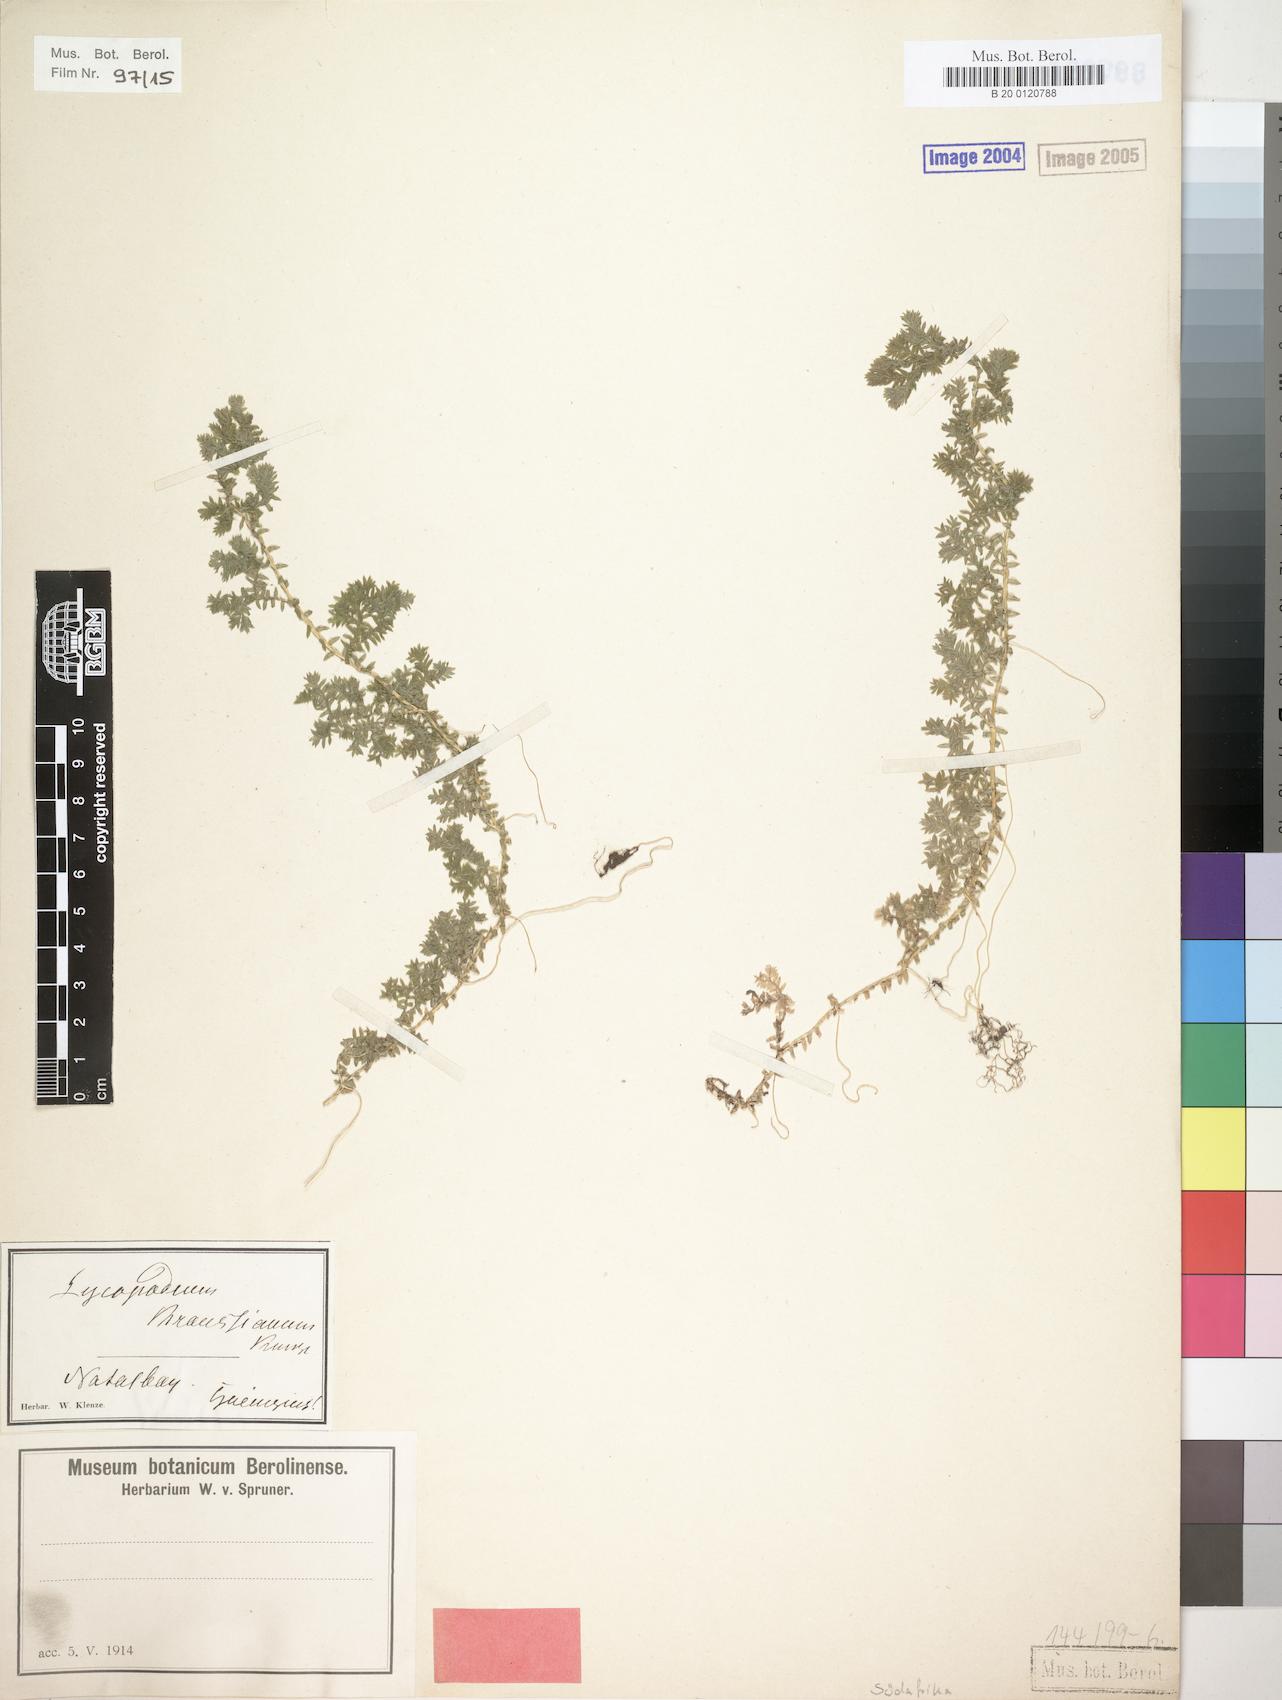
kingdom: Plantae
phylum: Tracheophyta
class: Lycopodiopsida
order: Selaginellales
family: Selaginellaceae
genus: Selaginella
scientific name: Selaginella kraussiana
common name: Krauss' spikemoss
